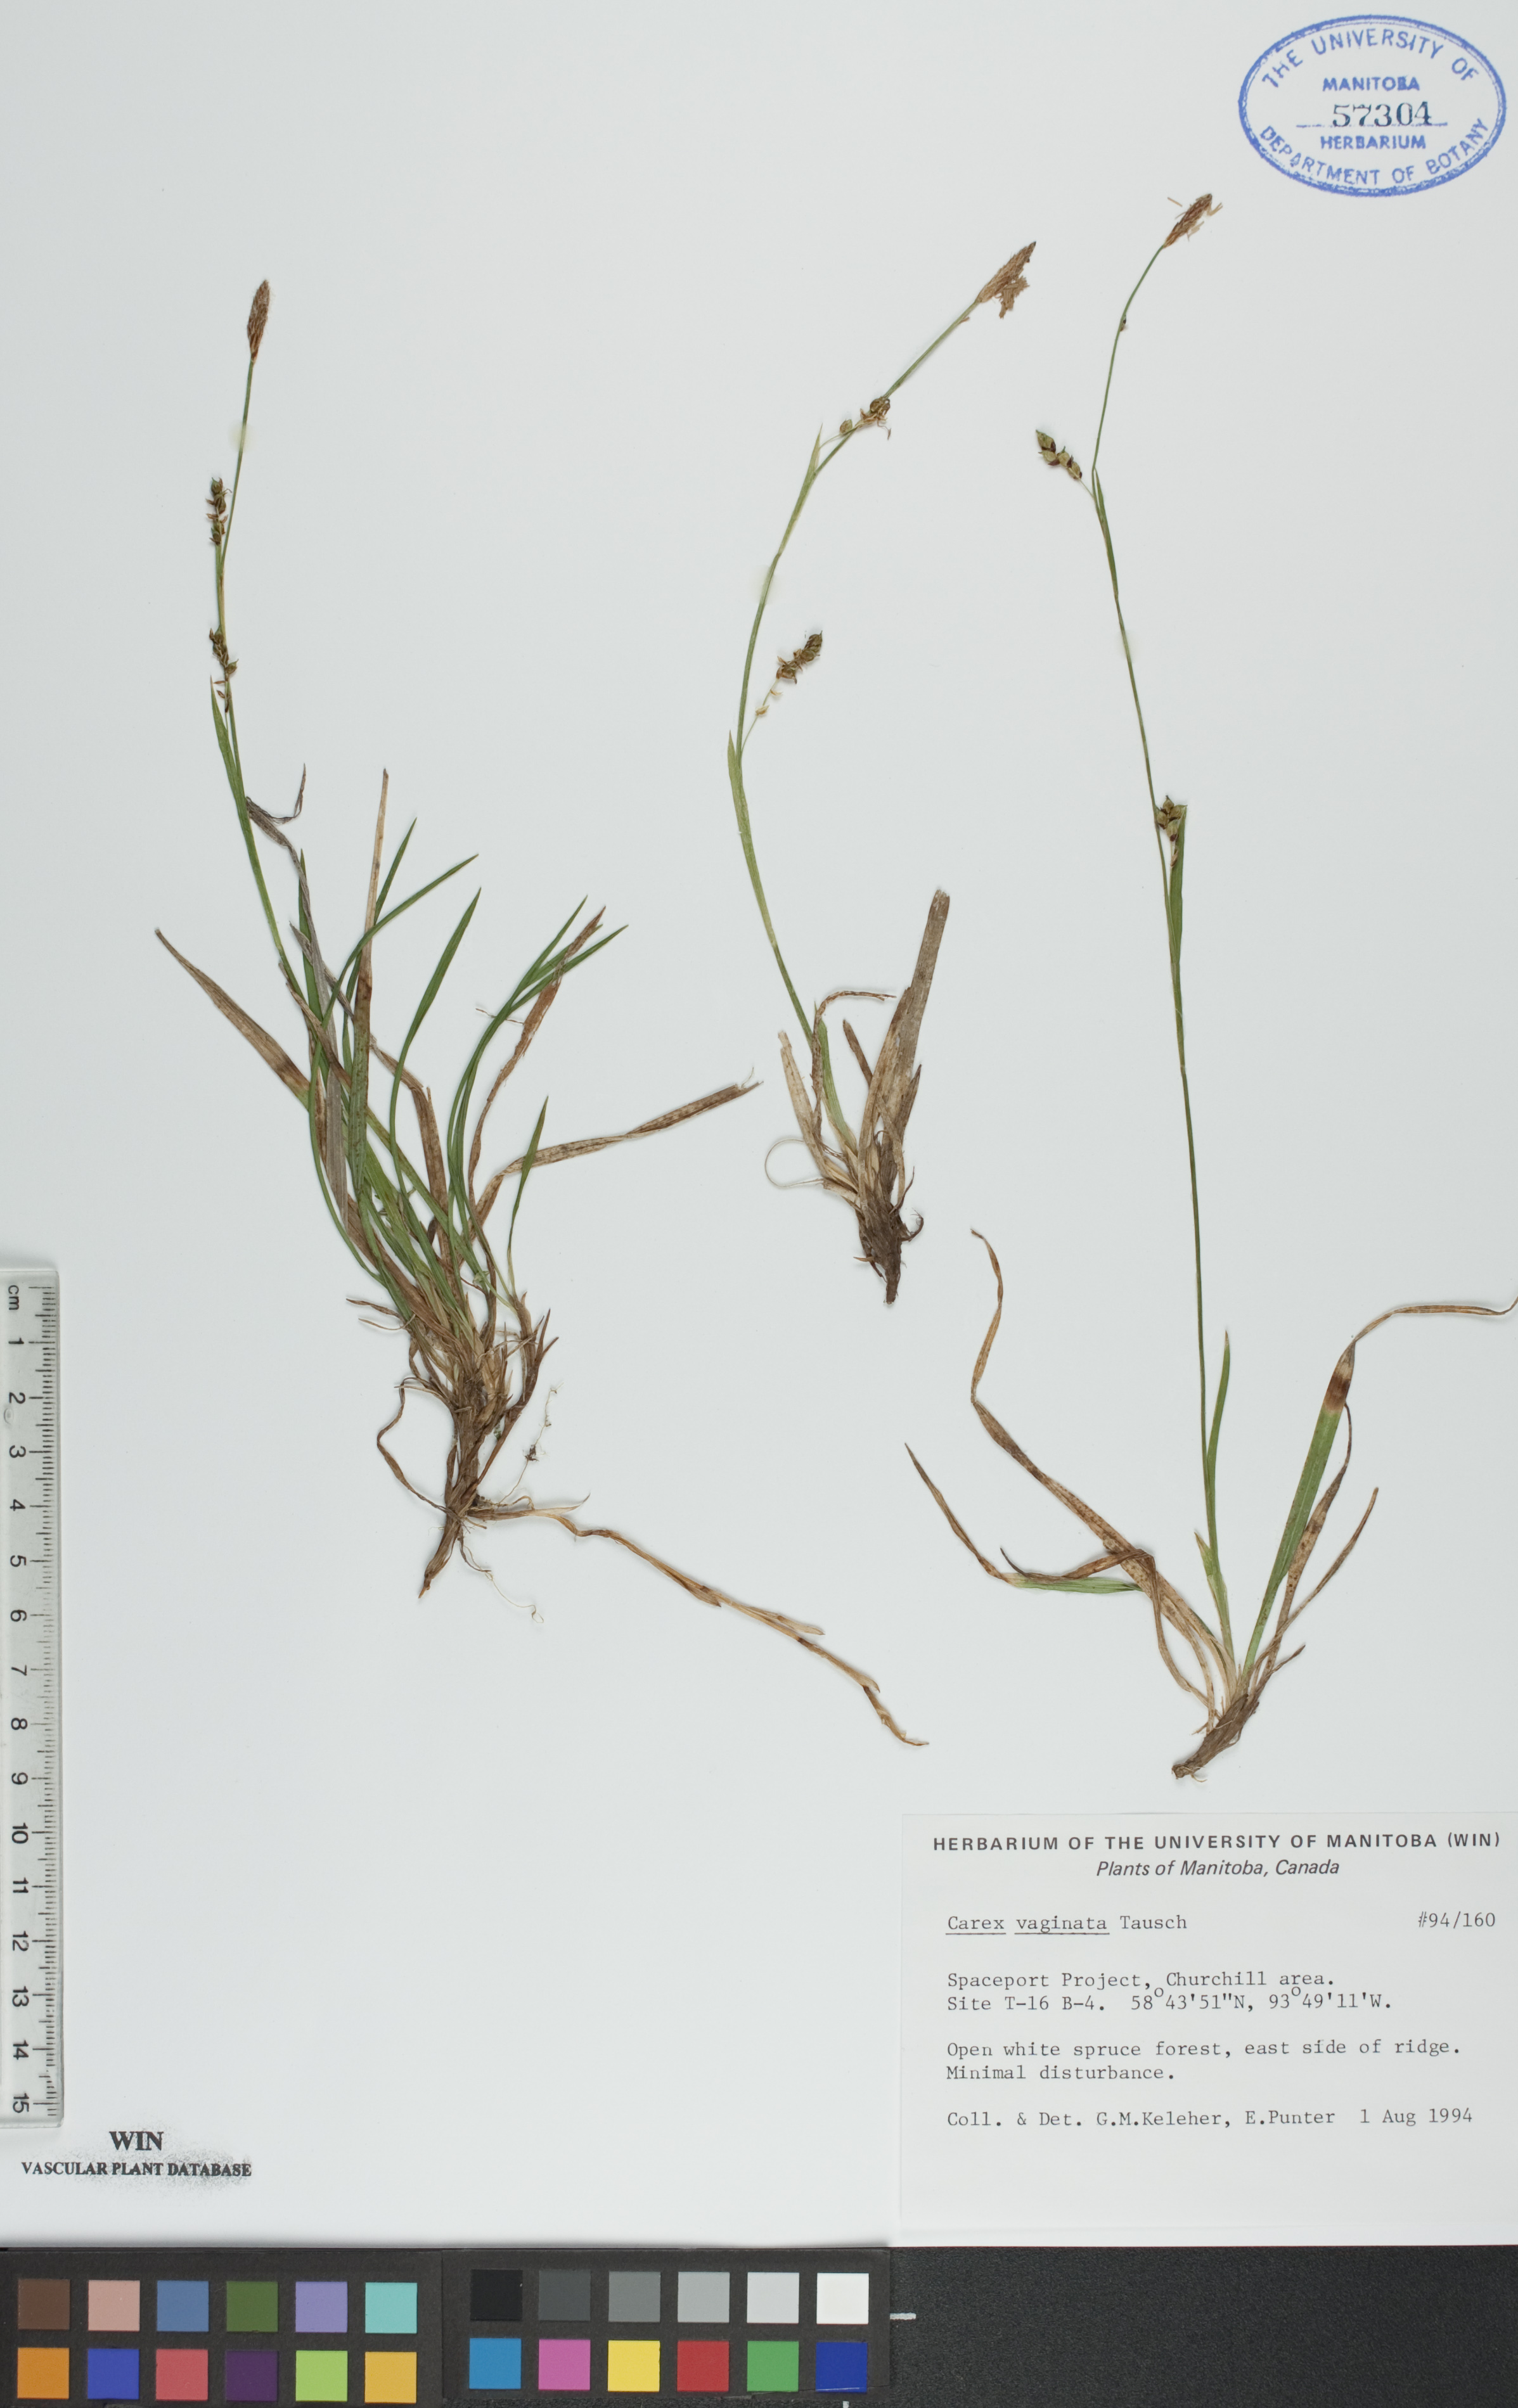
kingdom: Plantae
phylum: Tracheophyta
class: Liliopsida
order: Poales
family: Cyperaceae
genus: Carex
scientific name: Carex vaginata
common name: Sheathed sedge
